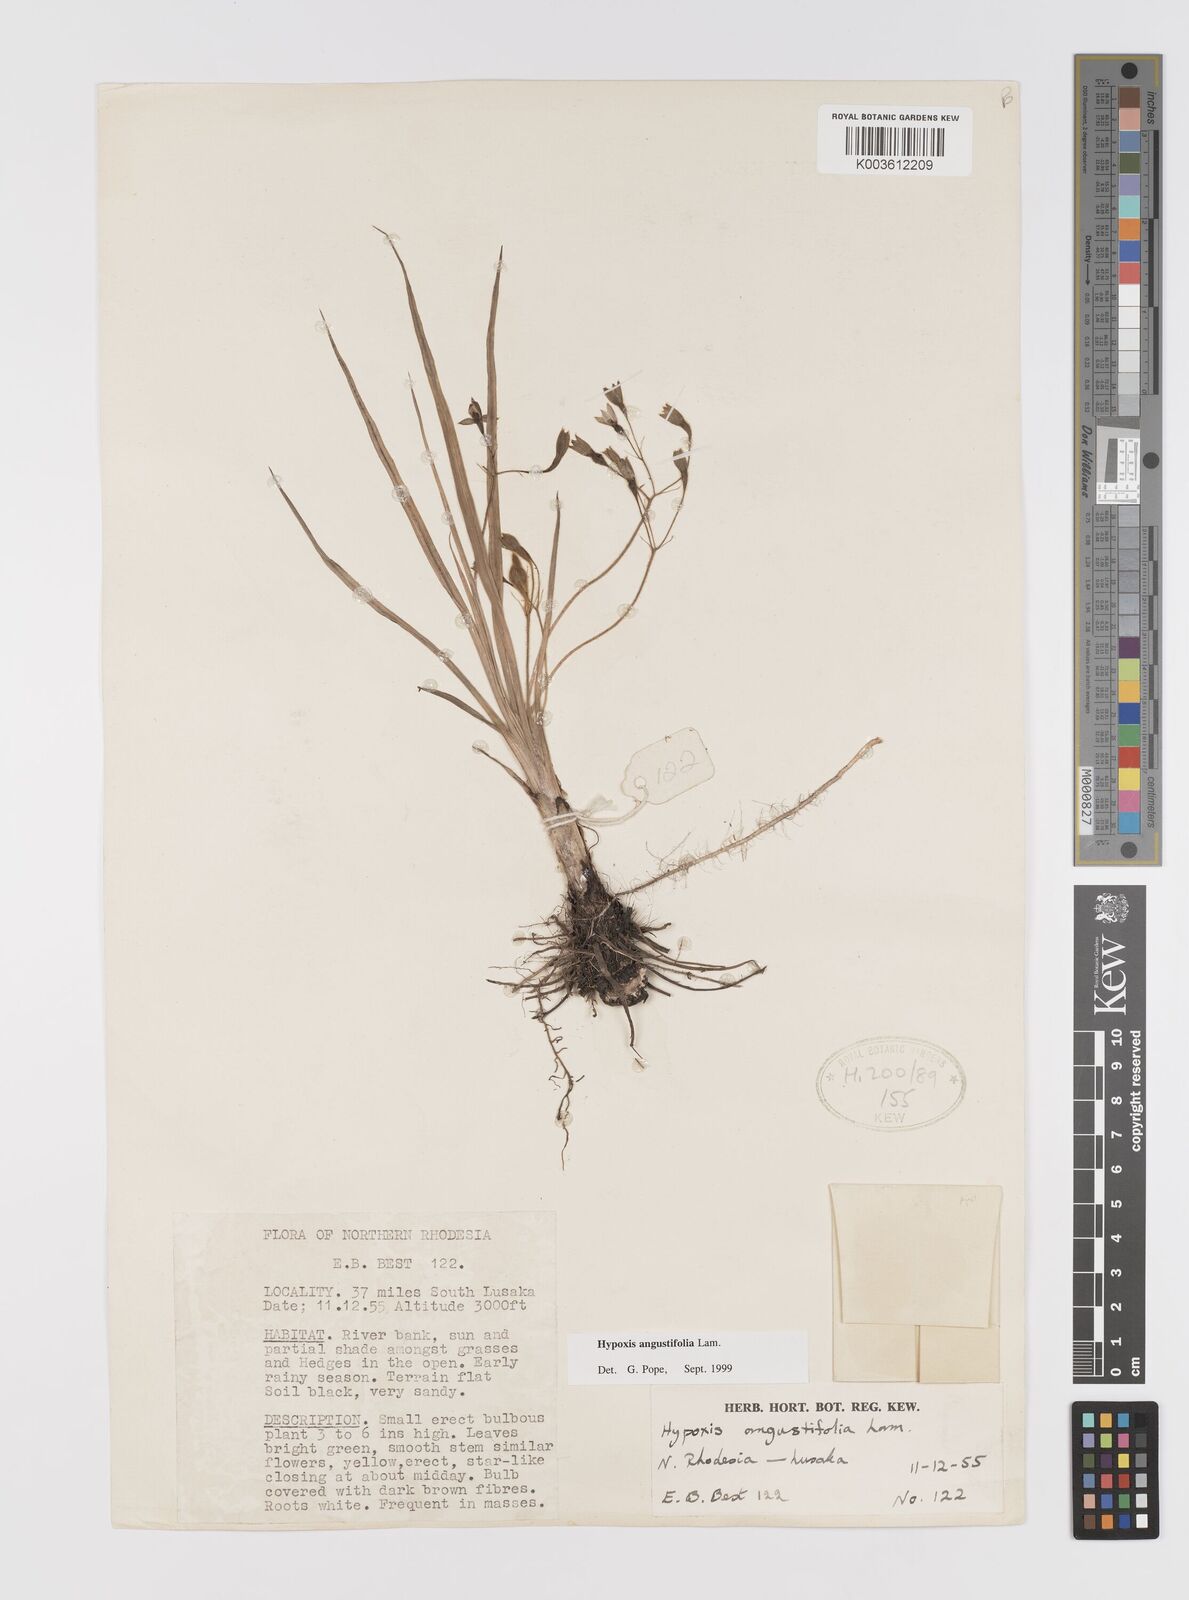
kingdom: Plantae
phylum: Tracheophyta
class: Liliopsida
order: Asparagales
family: Hypoxidaceae
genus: Hypoxis
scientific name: Hypoxis angustifolia
